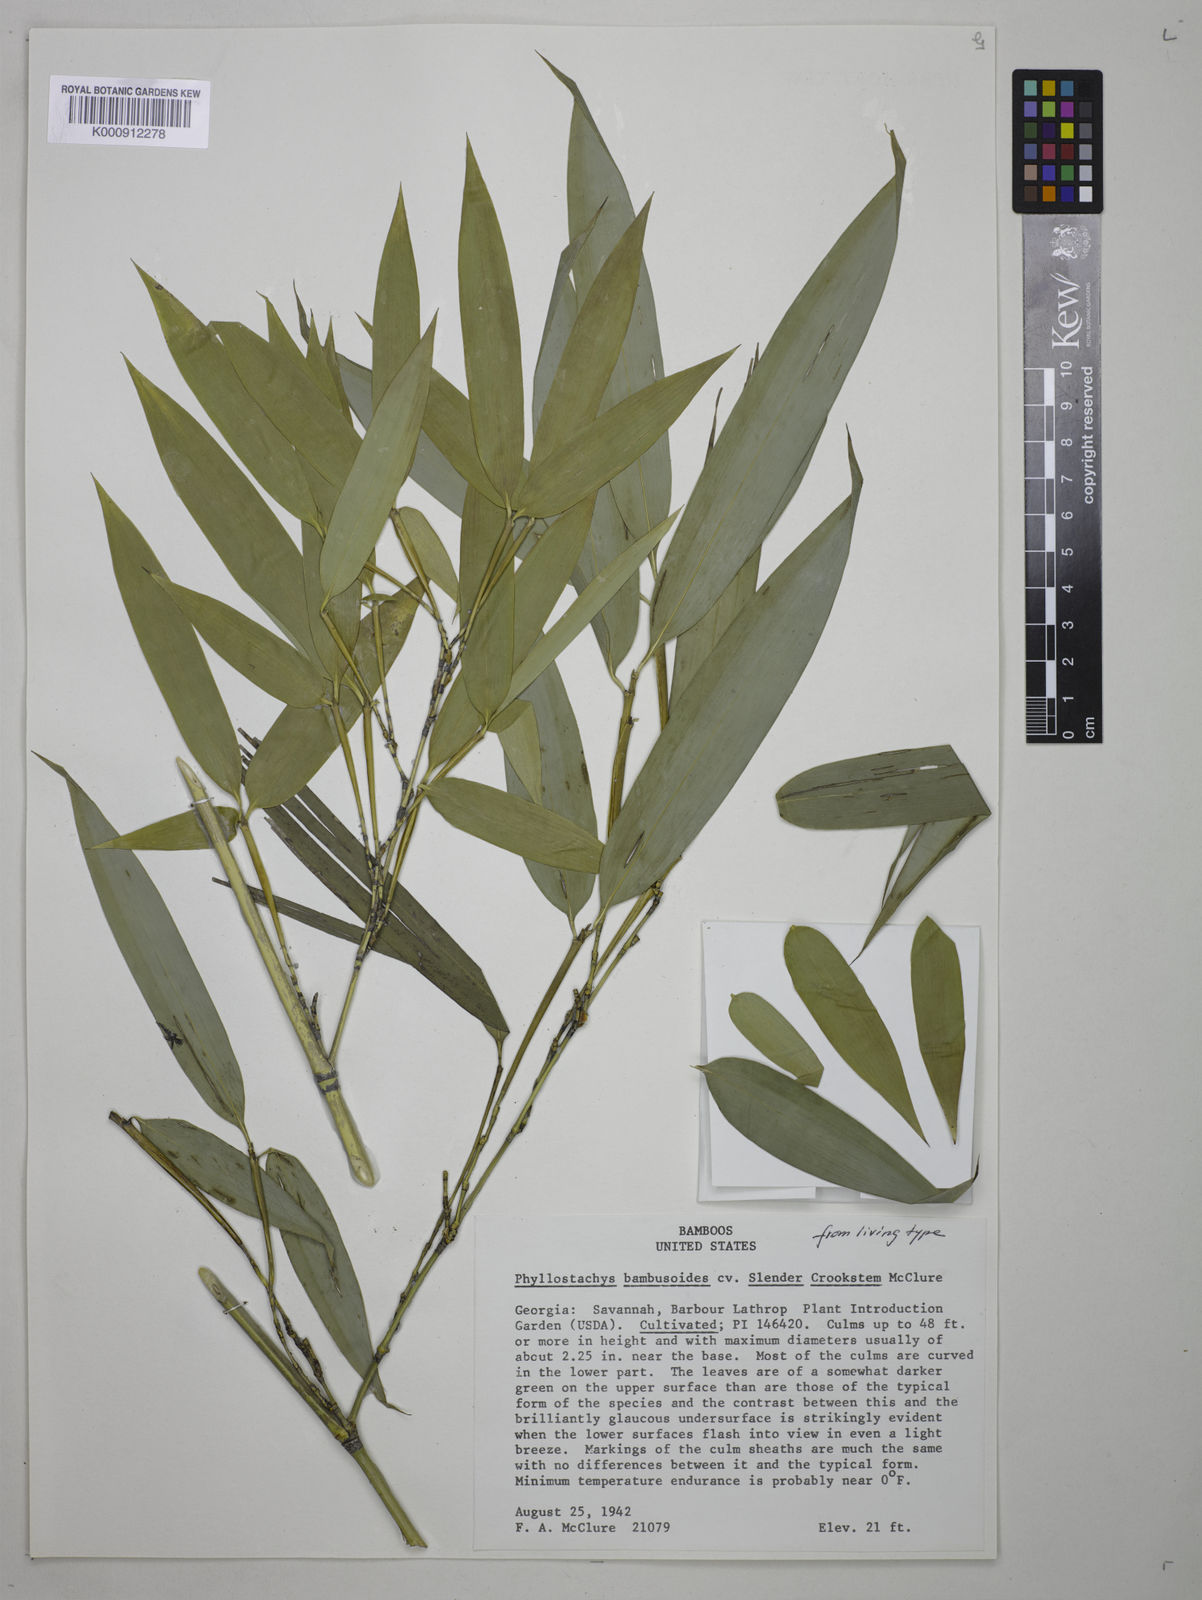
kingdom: Plantae
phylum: Tracheophyta
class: Liliopsida
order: Poales
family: Poaceae
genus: Phyllostachys
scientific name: Phyllostachys reticulata
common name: Bamboo
